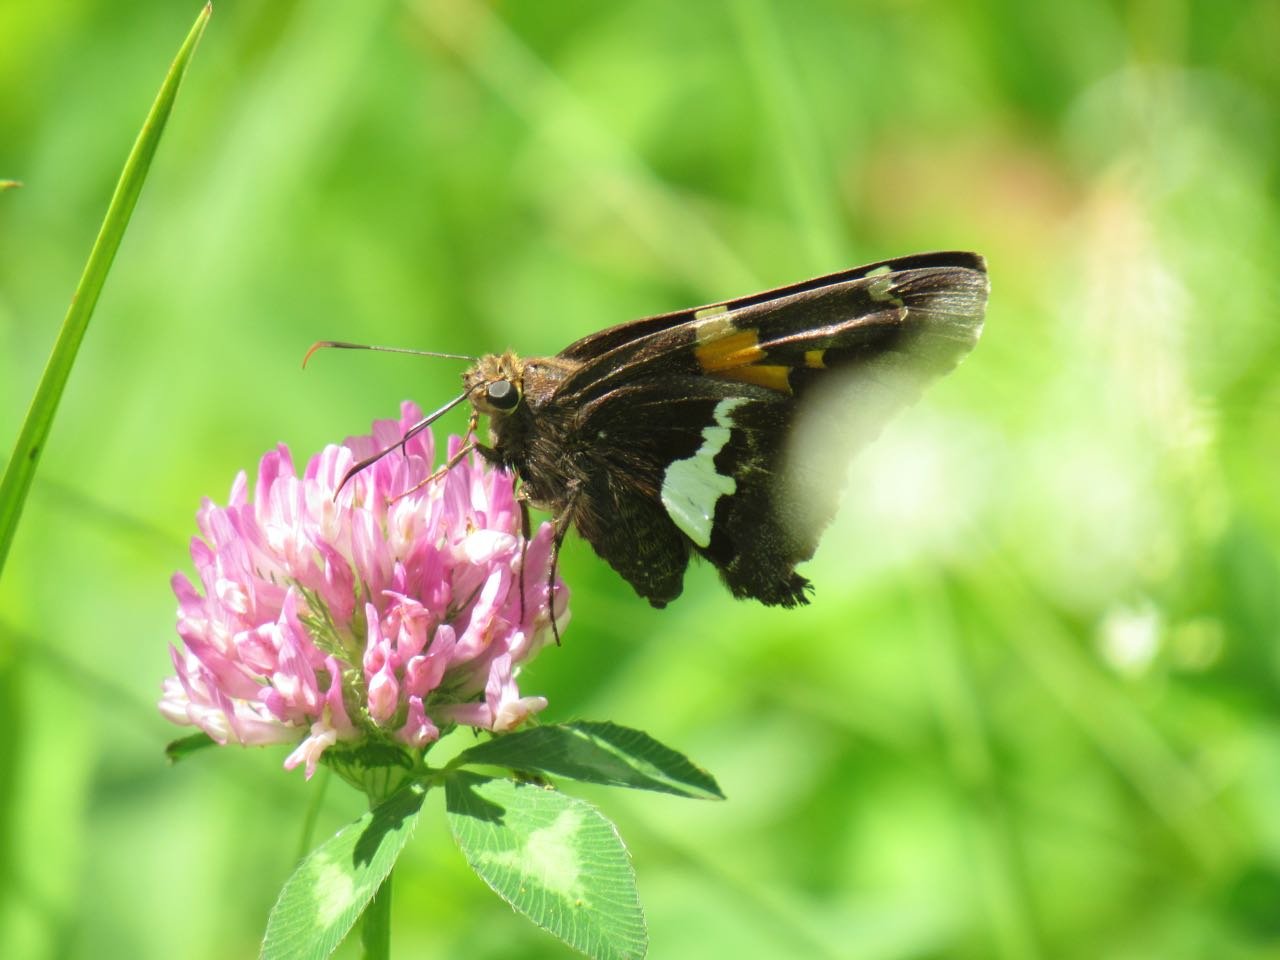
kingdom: Animalia
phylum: Arthropoda
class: Insecta
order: Lepidoptera
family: Hesperiidae
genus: Epargyreus
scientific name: Epargyreus clarus
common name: Silver-spotted Skipper
